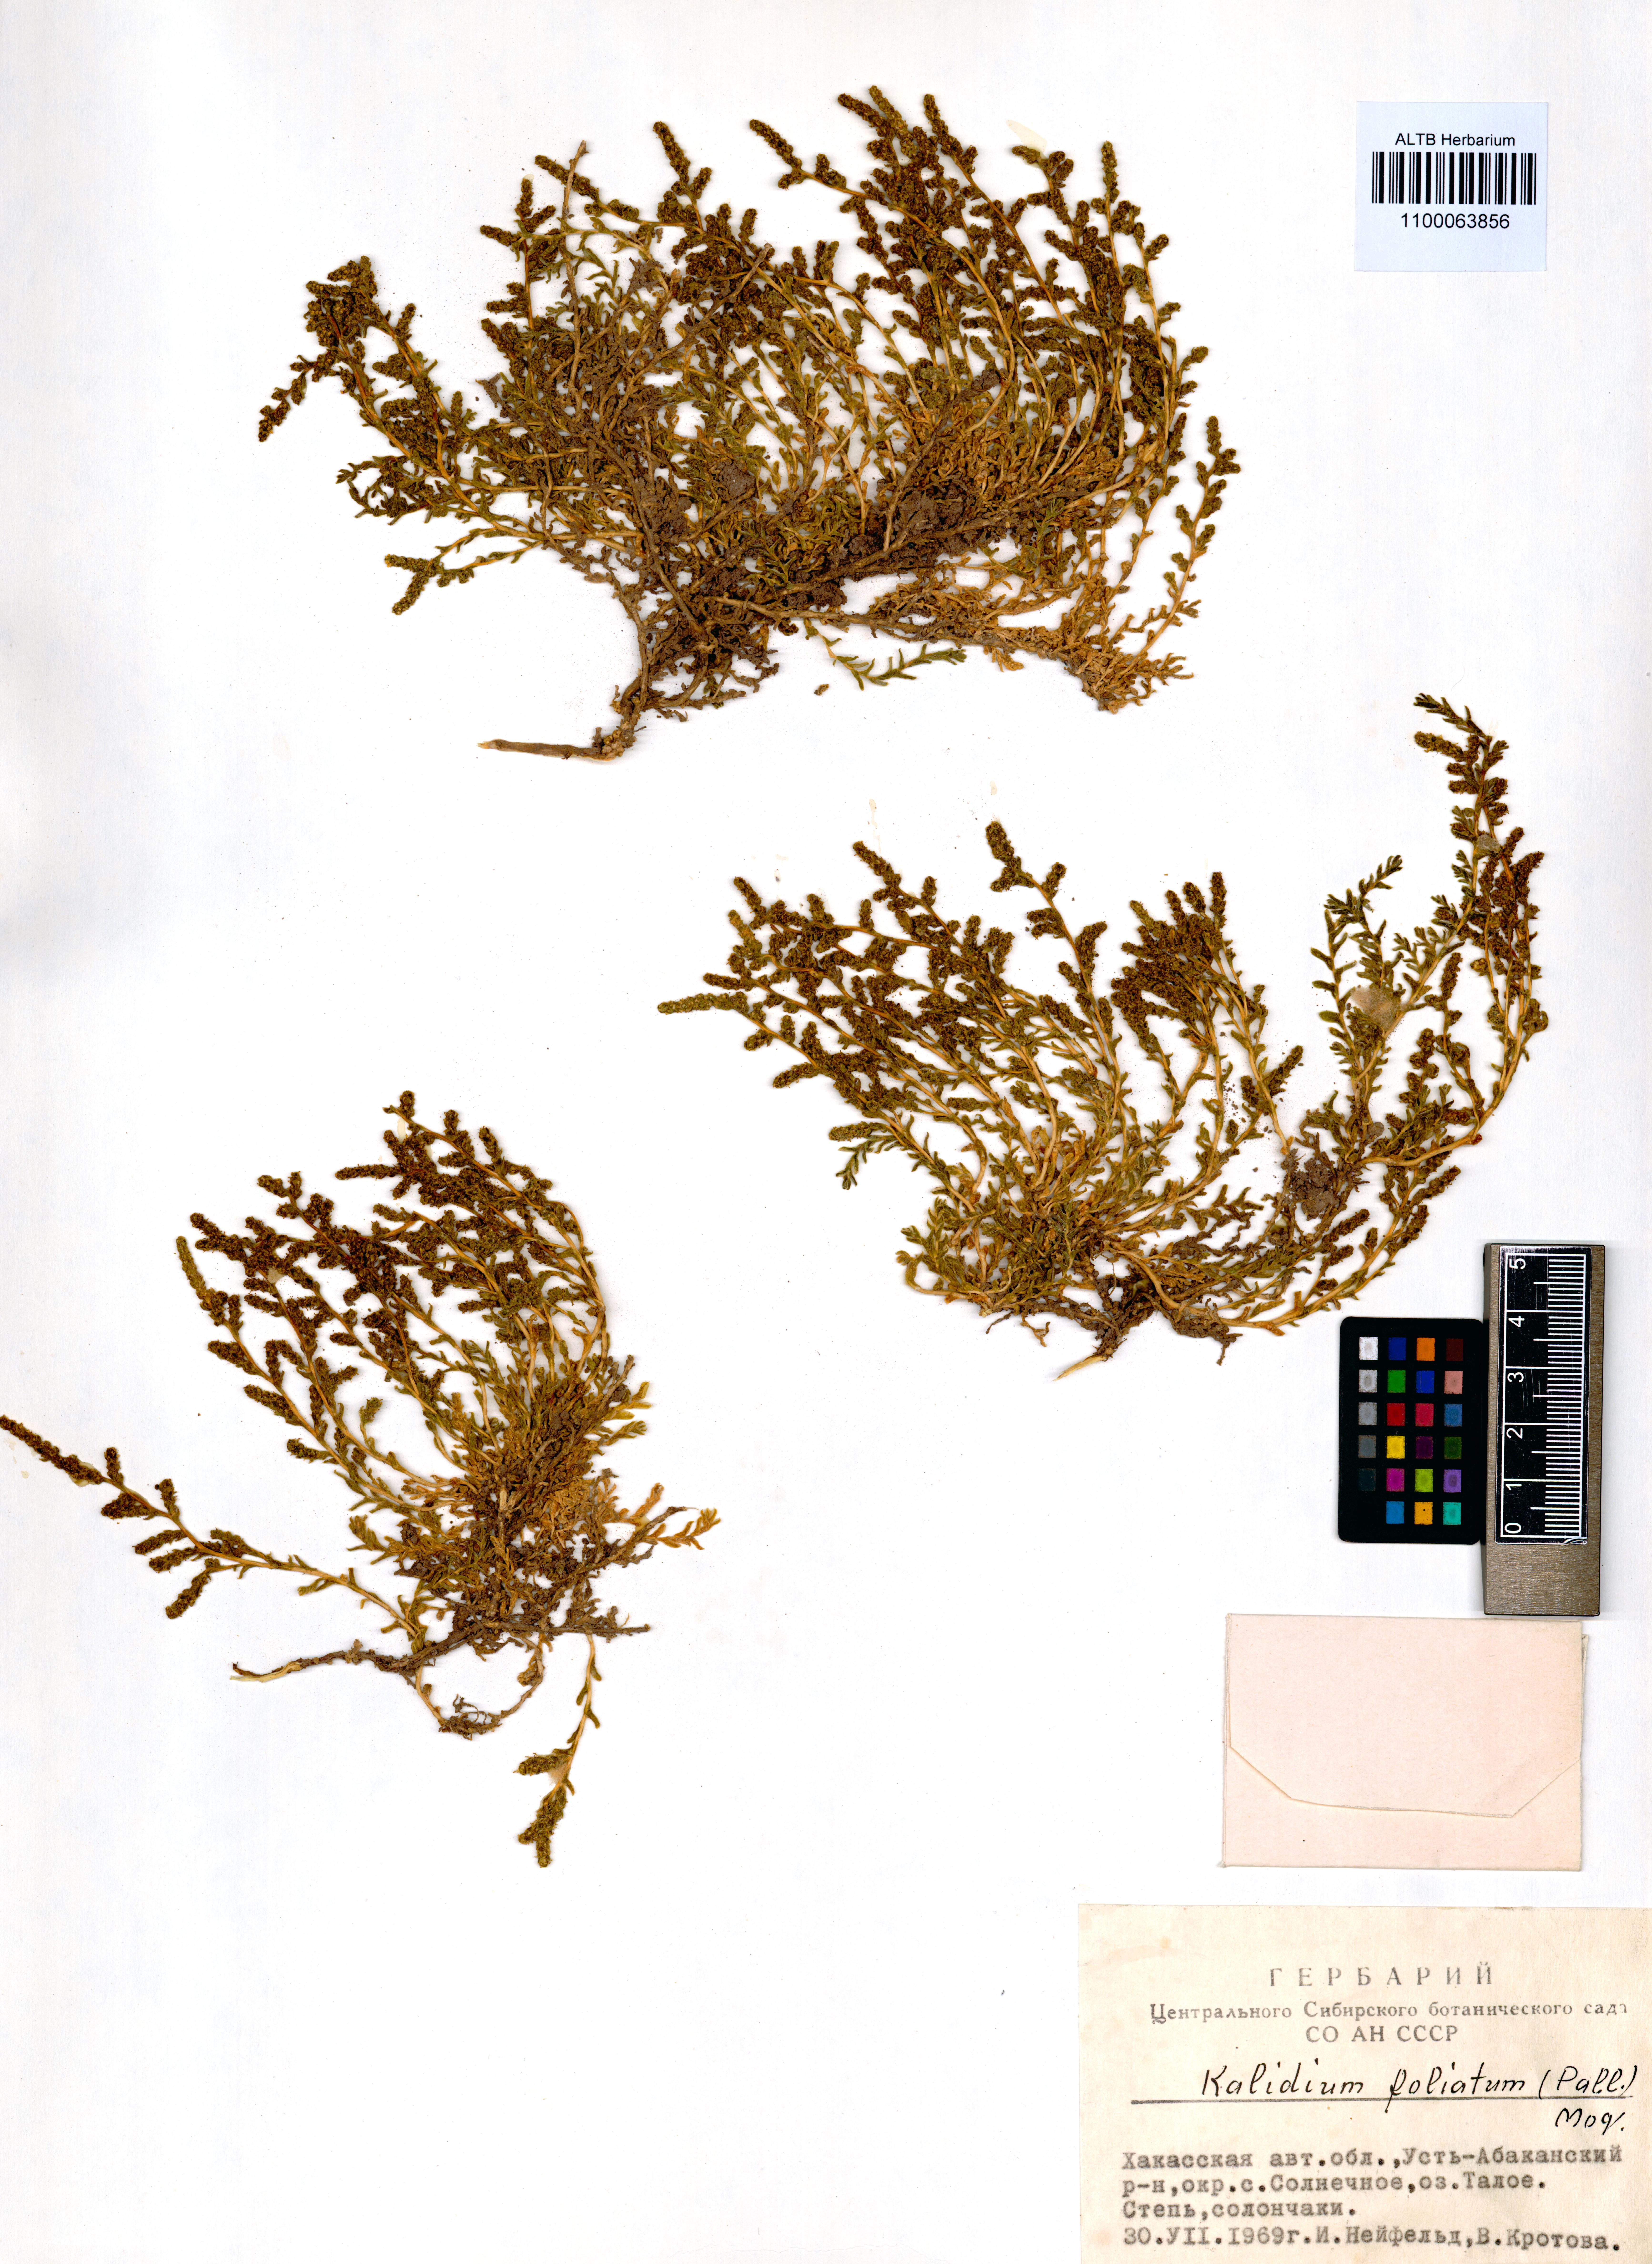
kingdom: Plantae
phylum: Tracheophyta
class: Magnoliopsida
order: Caryophyllales
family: Amaranthaceae
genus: Kalidium
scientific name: Kalidium foliatum
